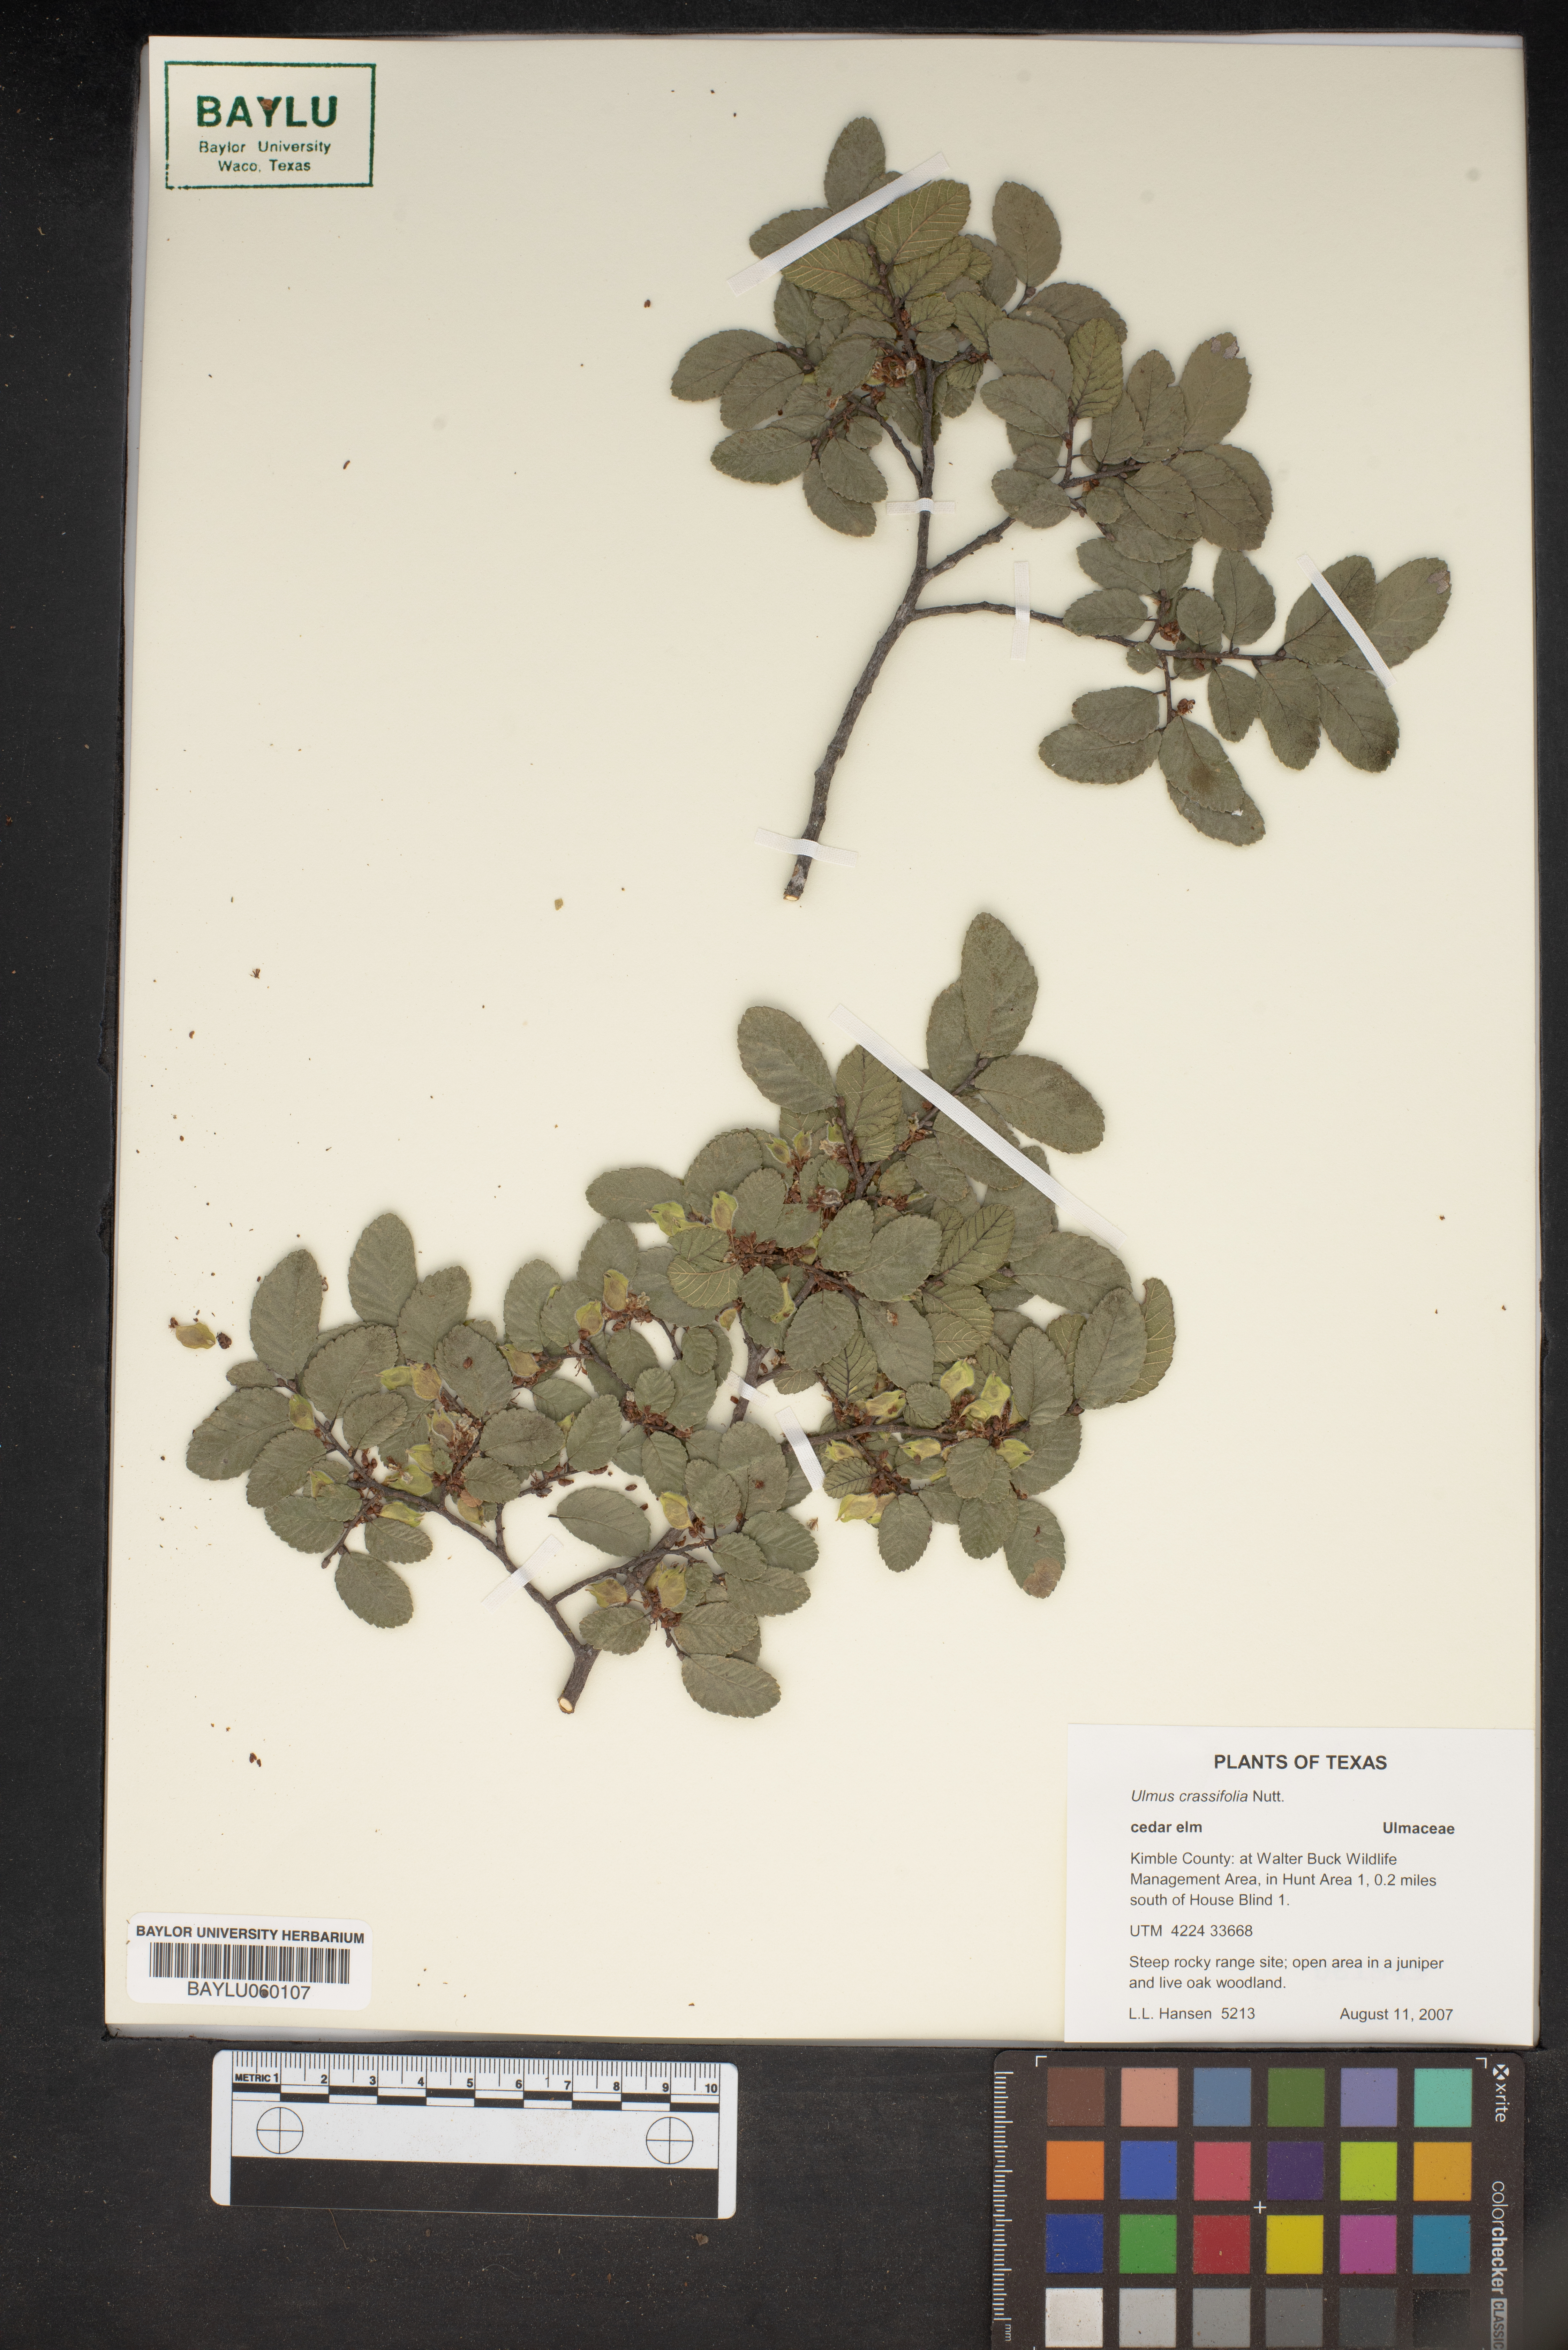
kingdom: Plantae
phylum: Tracheophyta
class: Magnoliopsida
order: Rosales
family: Ulmaceae
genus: Ulmus
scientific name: Ulmus crassifolia
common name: Basket elm
